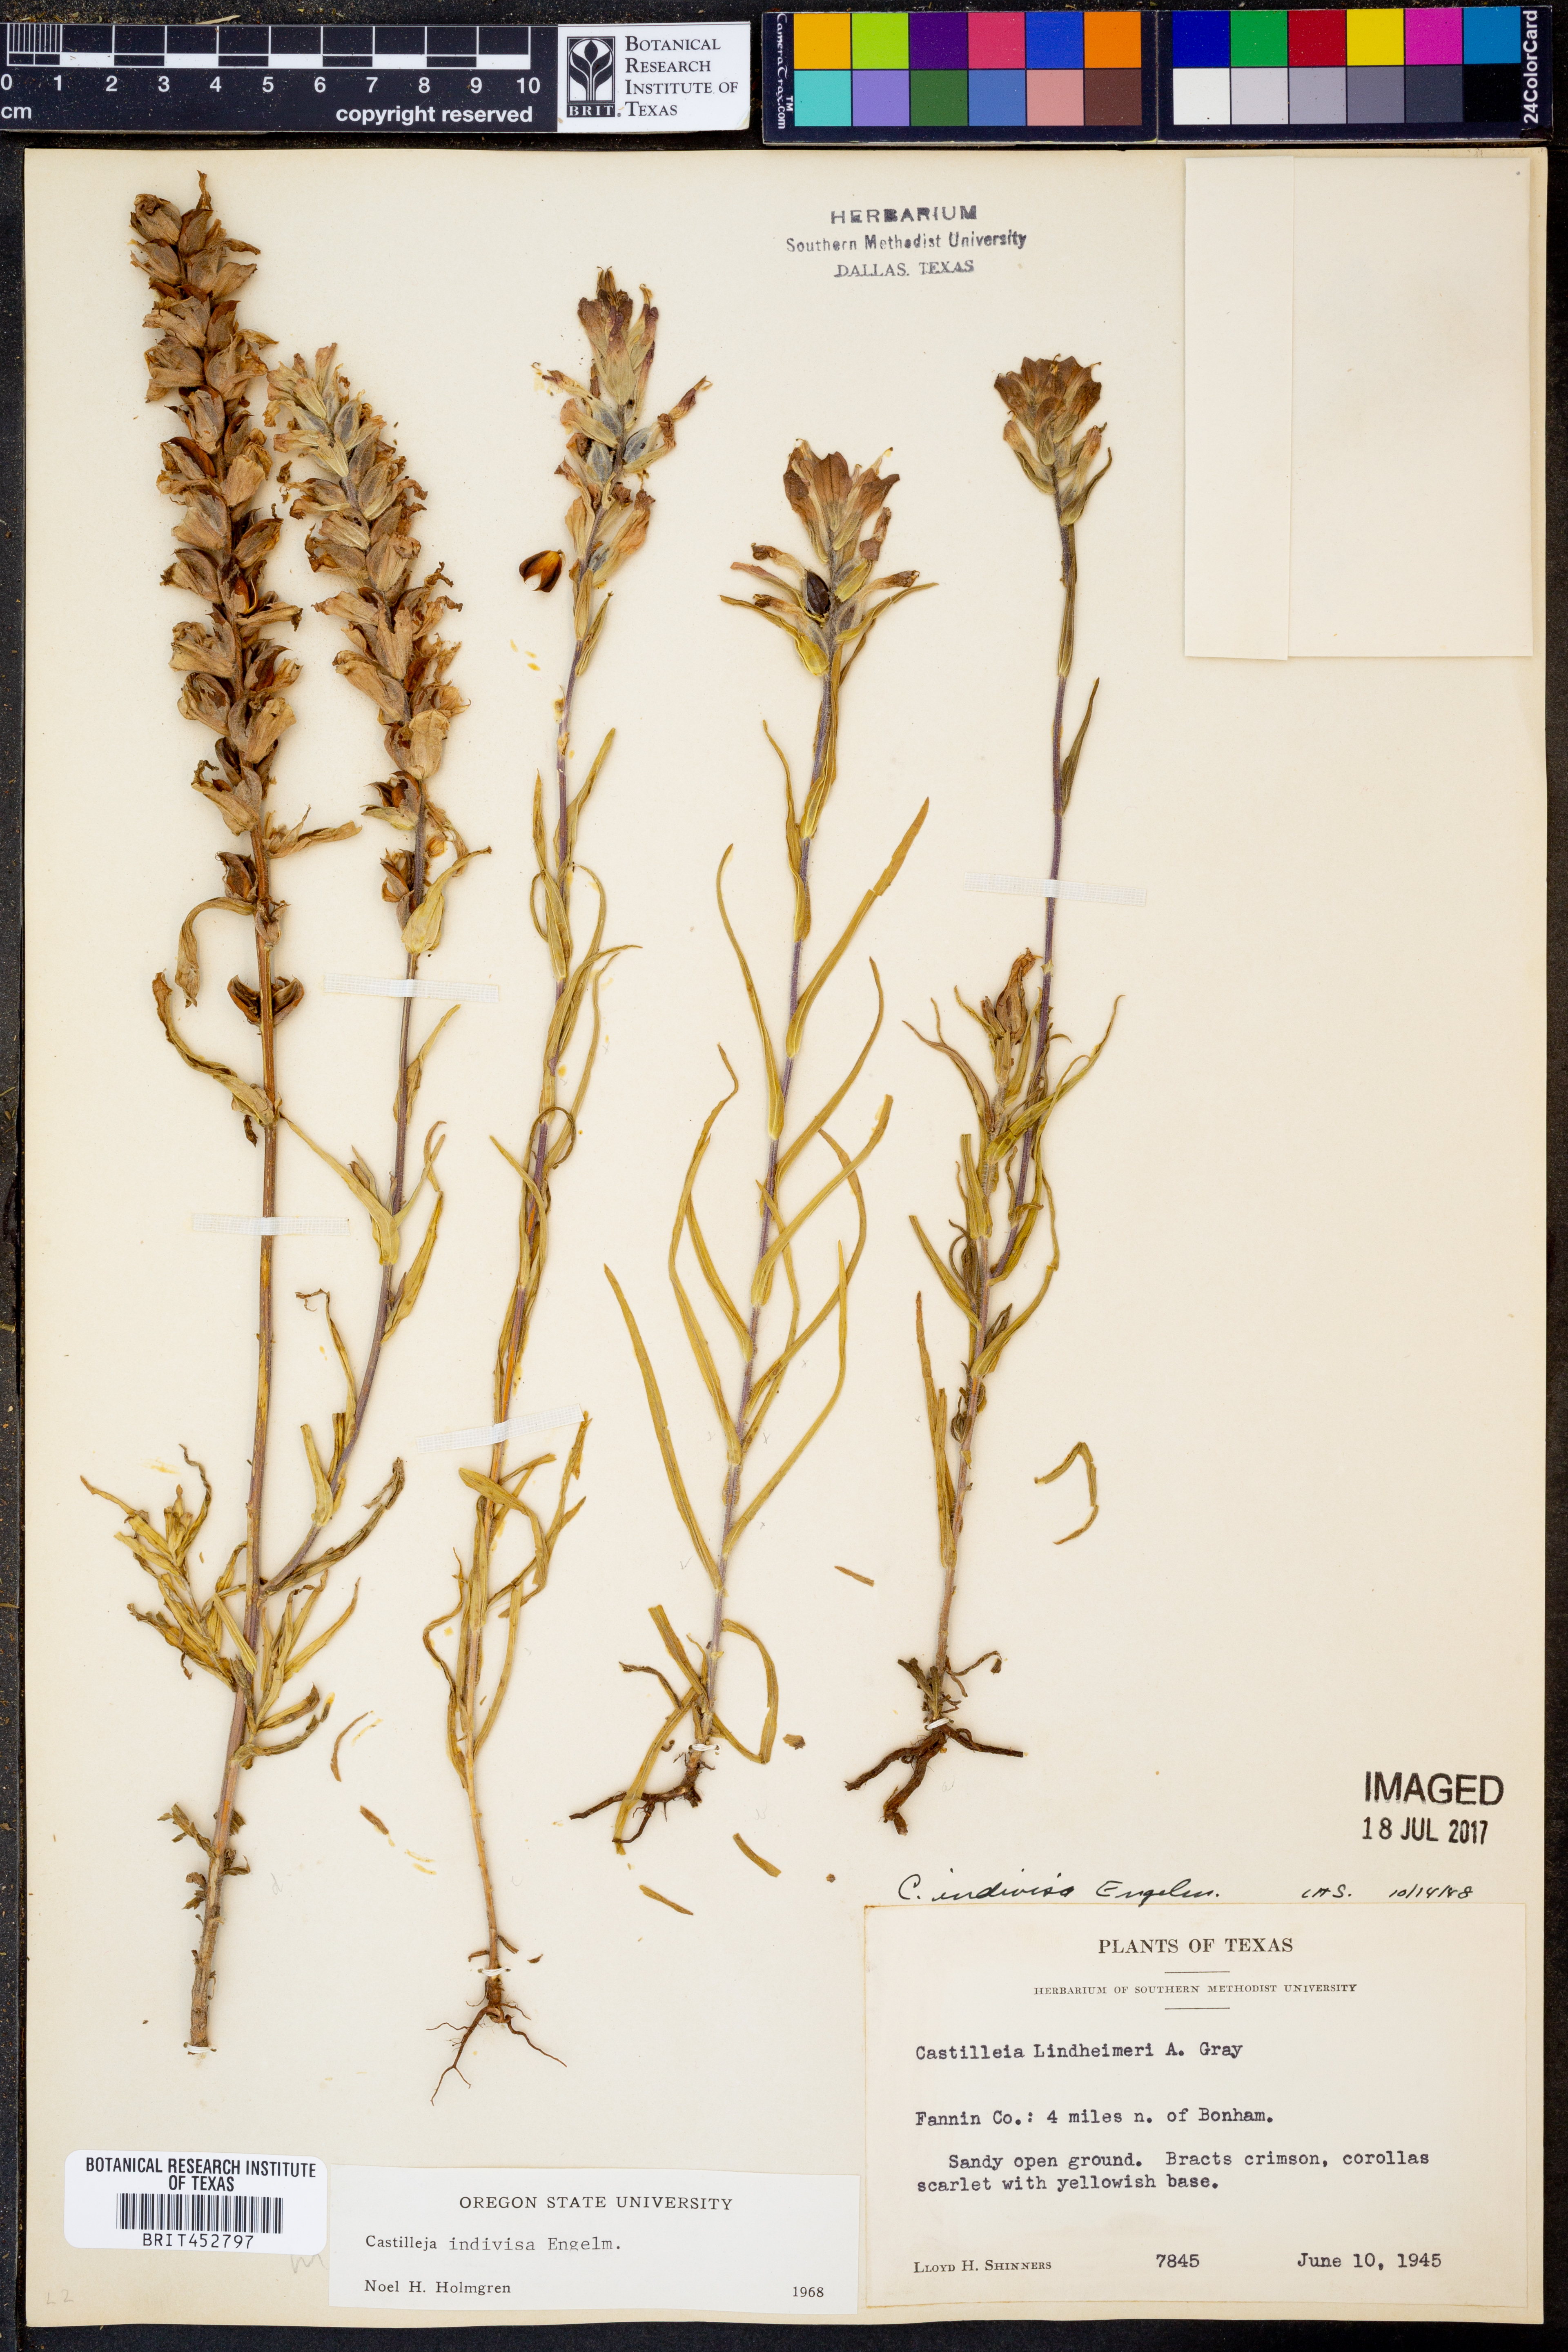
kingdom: Plantae
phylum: Tracheophyta
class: Magnoliopsida
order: Lamiales
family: Orobanchaceae
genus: Castilleja
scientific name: Castilleja indivisa
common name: Texas paintbrush
